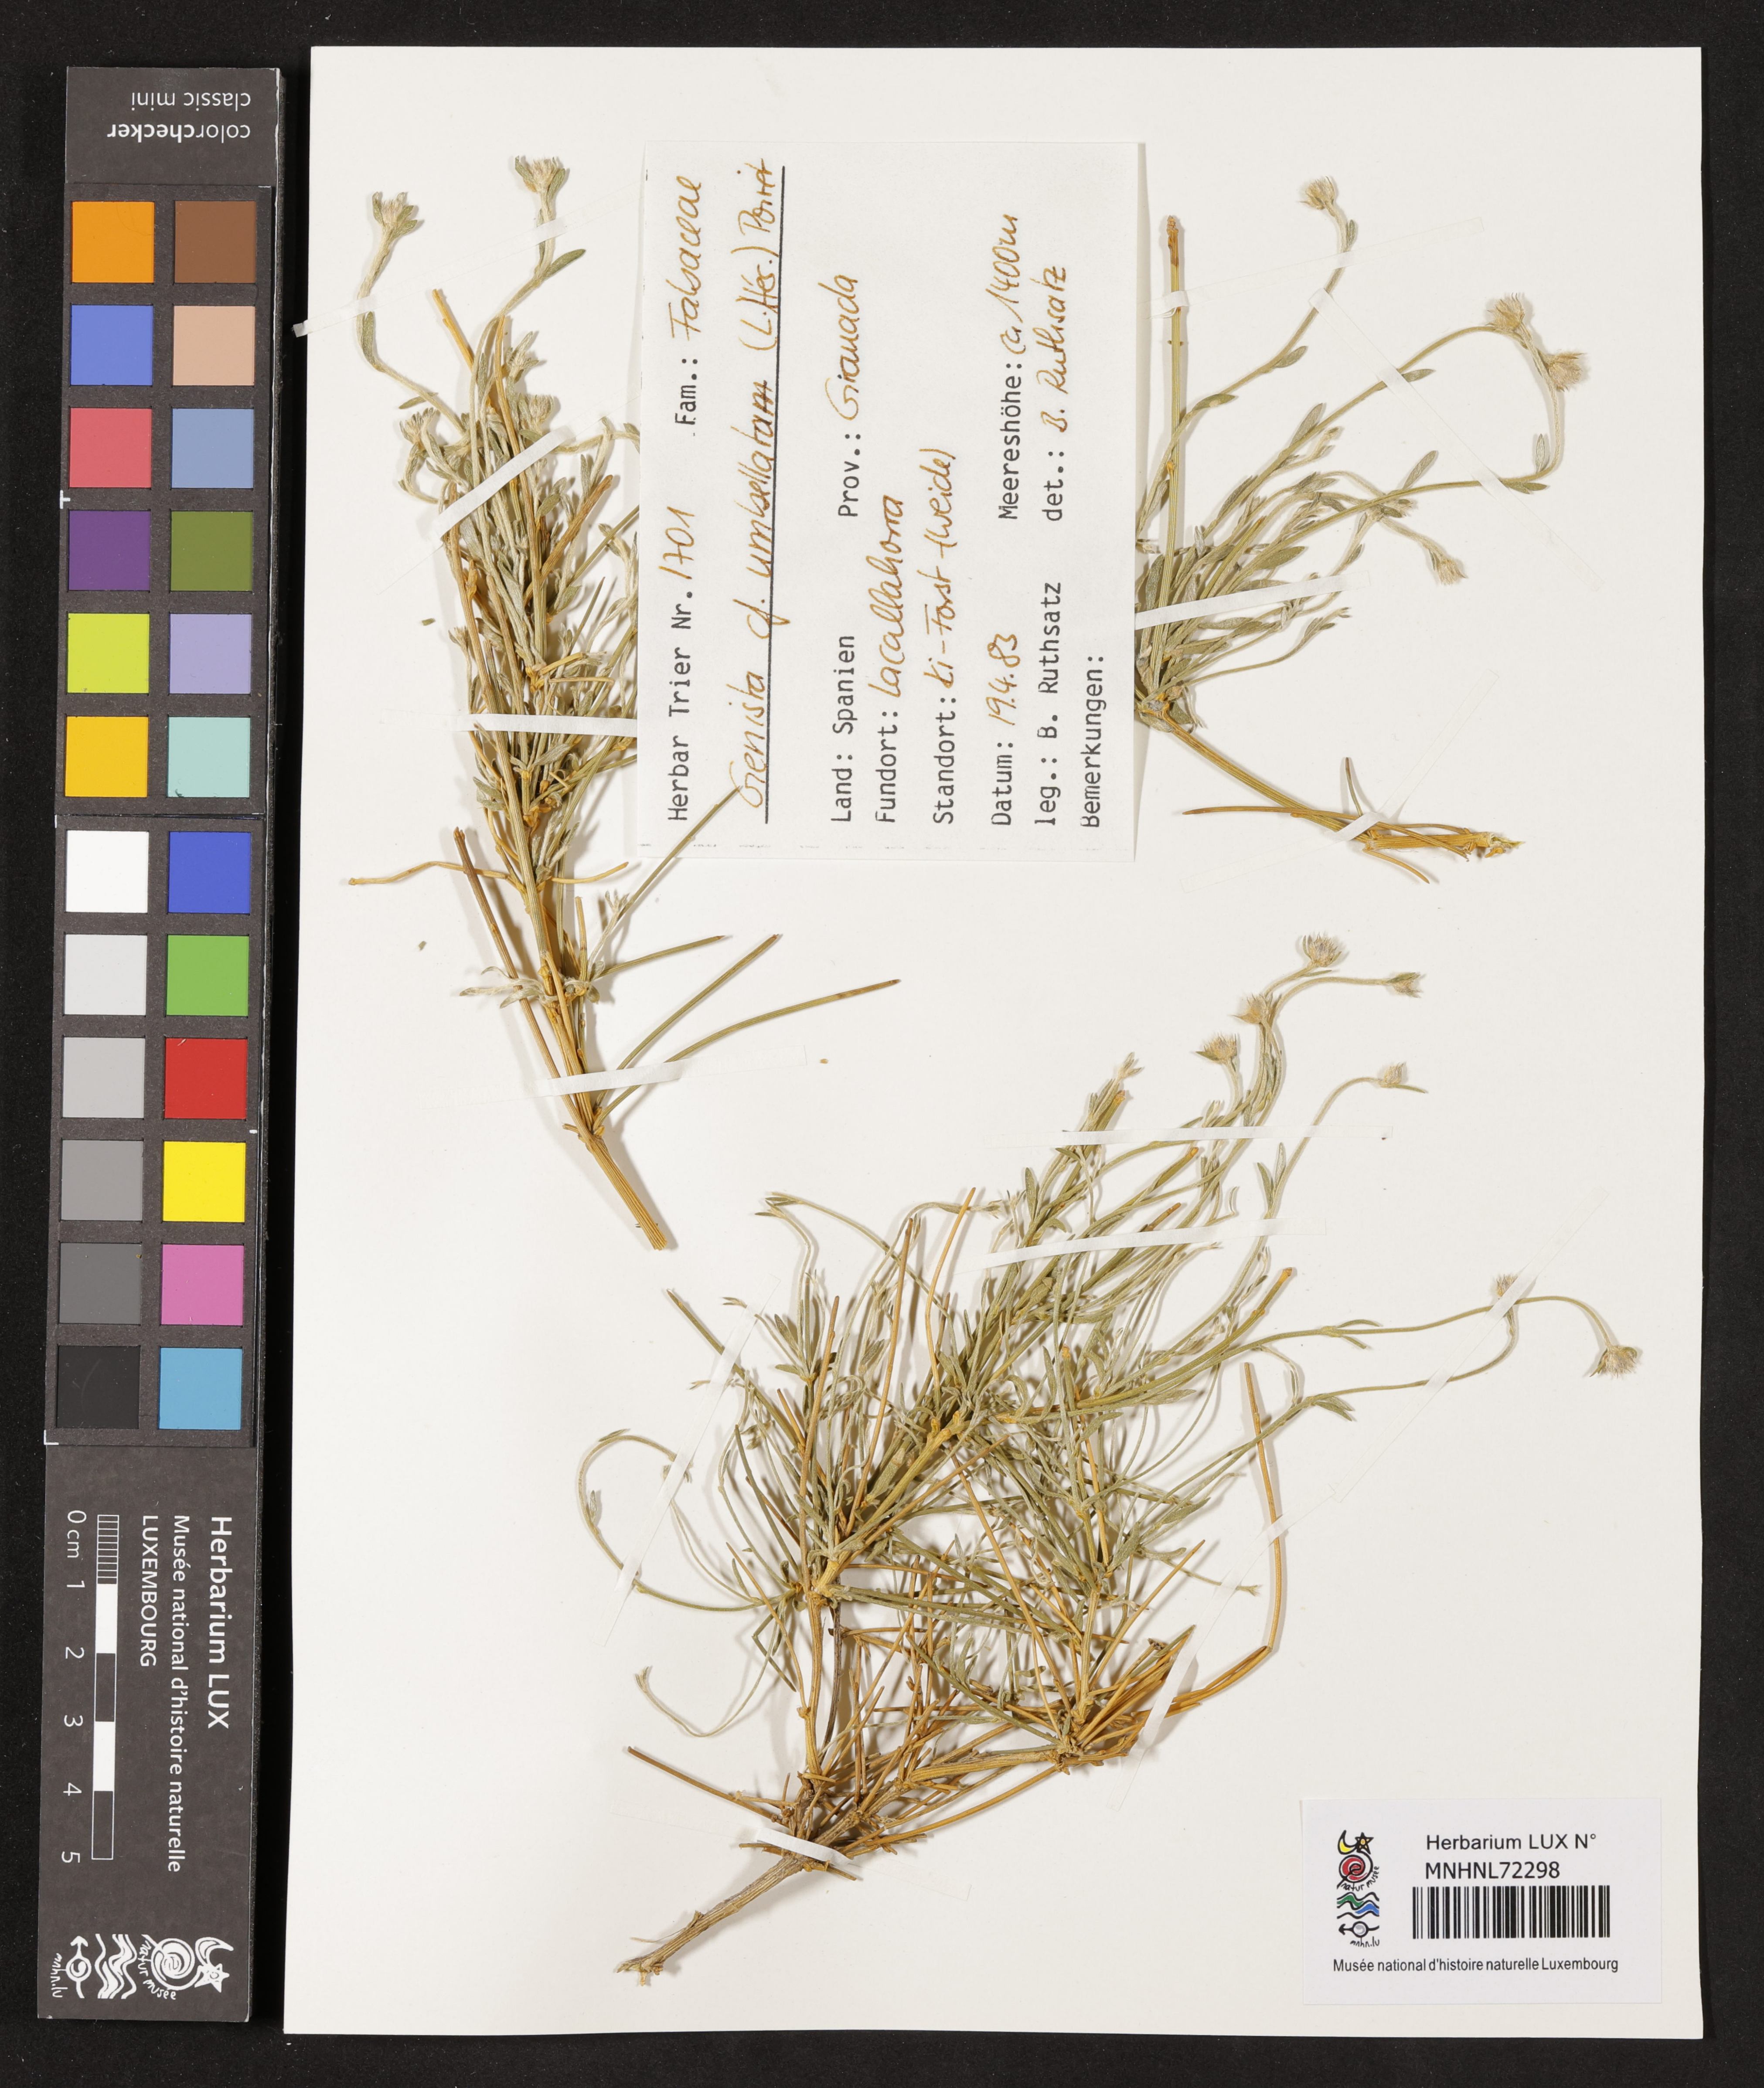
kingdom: Plantae
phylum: Tracheophyta
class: Magnoliopsida
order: Fabales
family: Fabaceae
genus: Genista
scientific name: Genista umbellata
